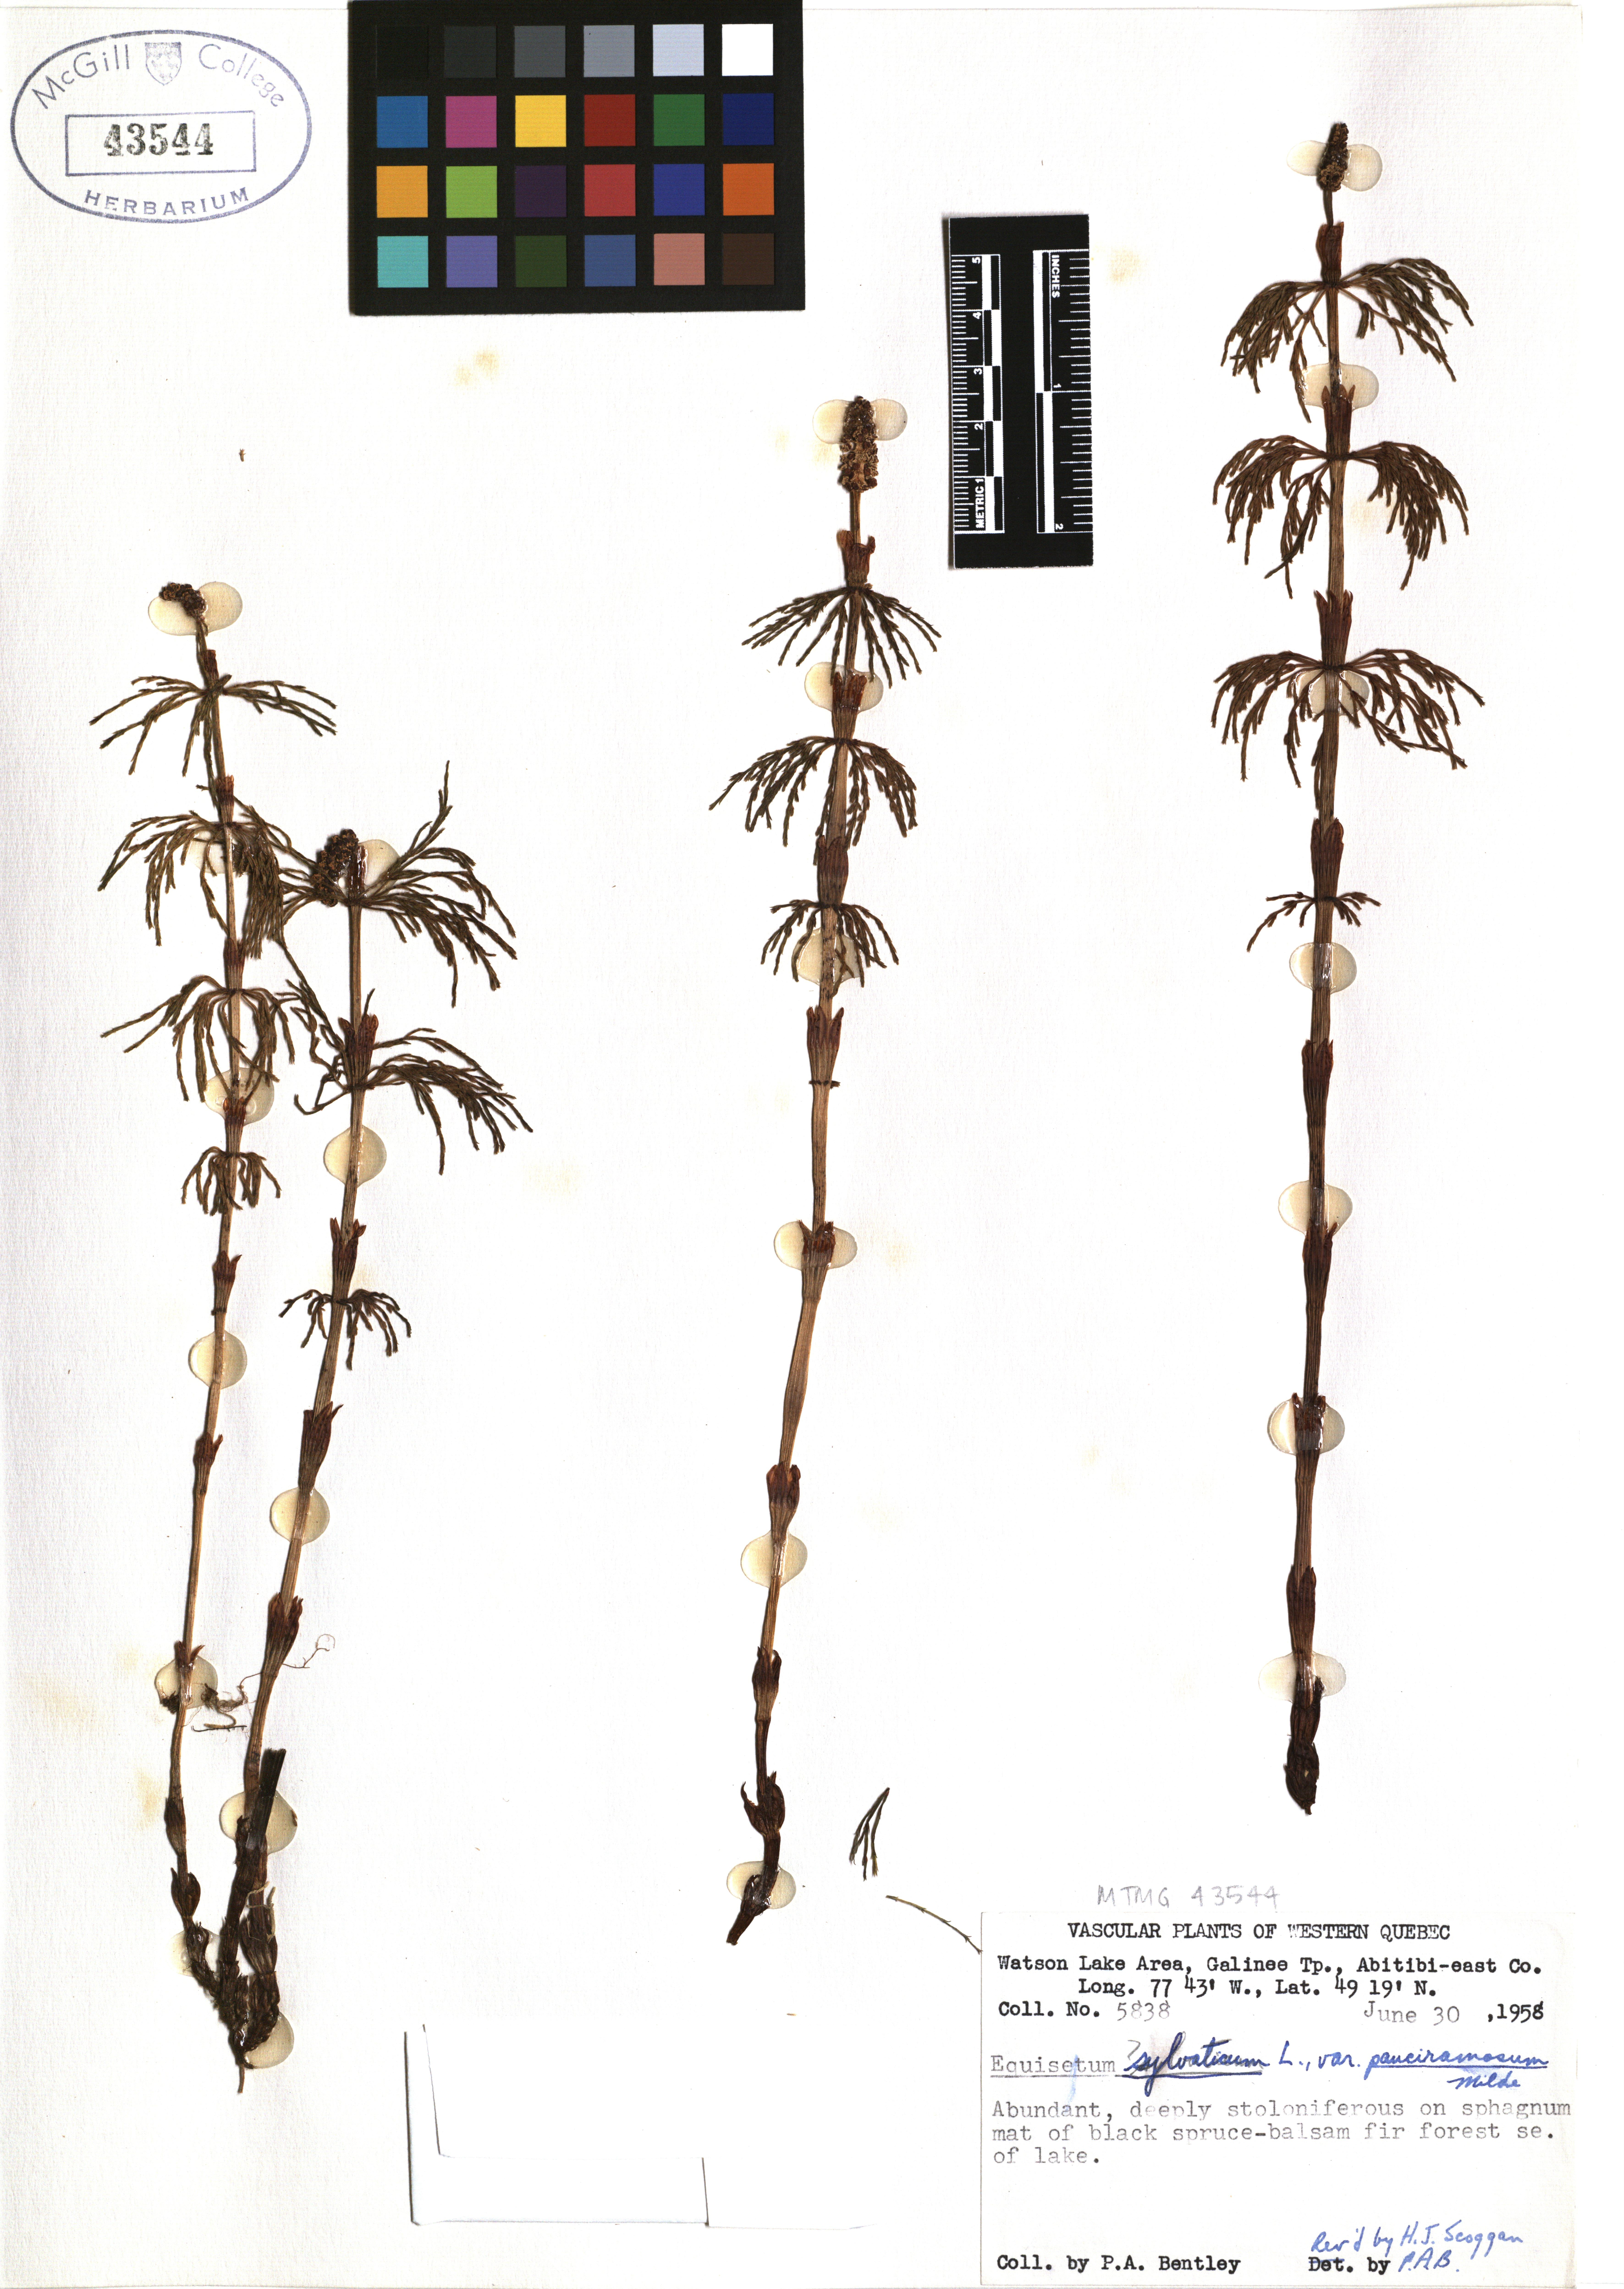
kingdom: Plantae
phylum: Tracheophyta
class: Polypodiopsida
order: Equisetales
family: Equisetaceae
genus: Equisetum
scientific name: Equisetum sylvaticum
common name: Wood horsetail
